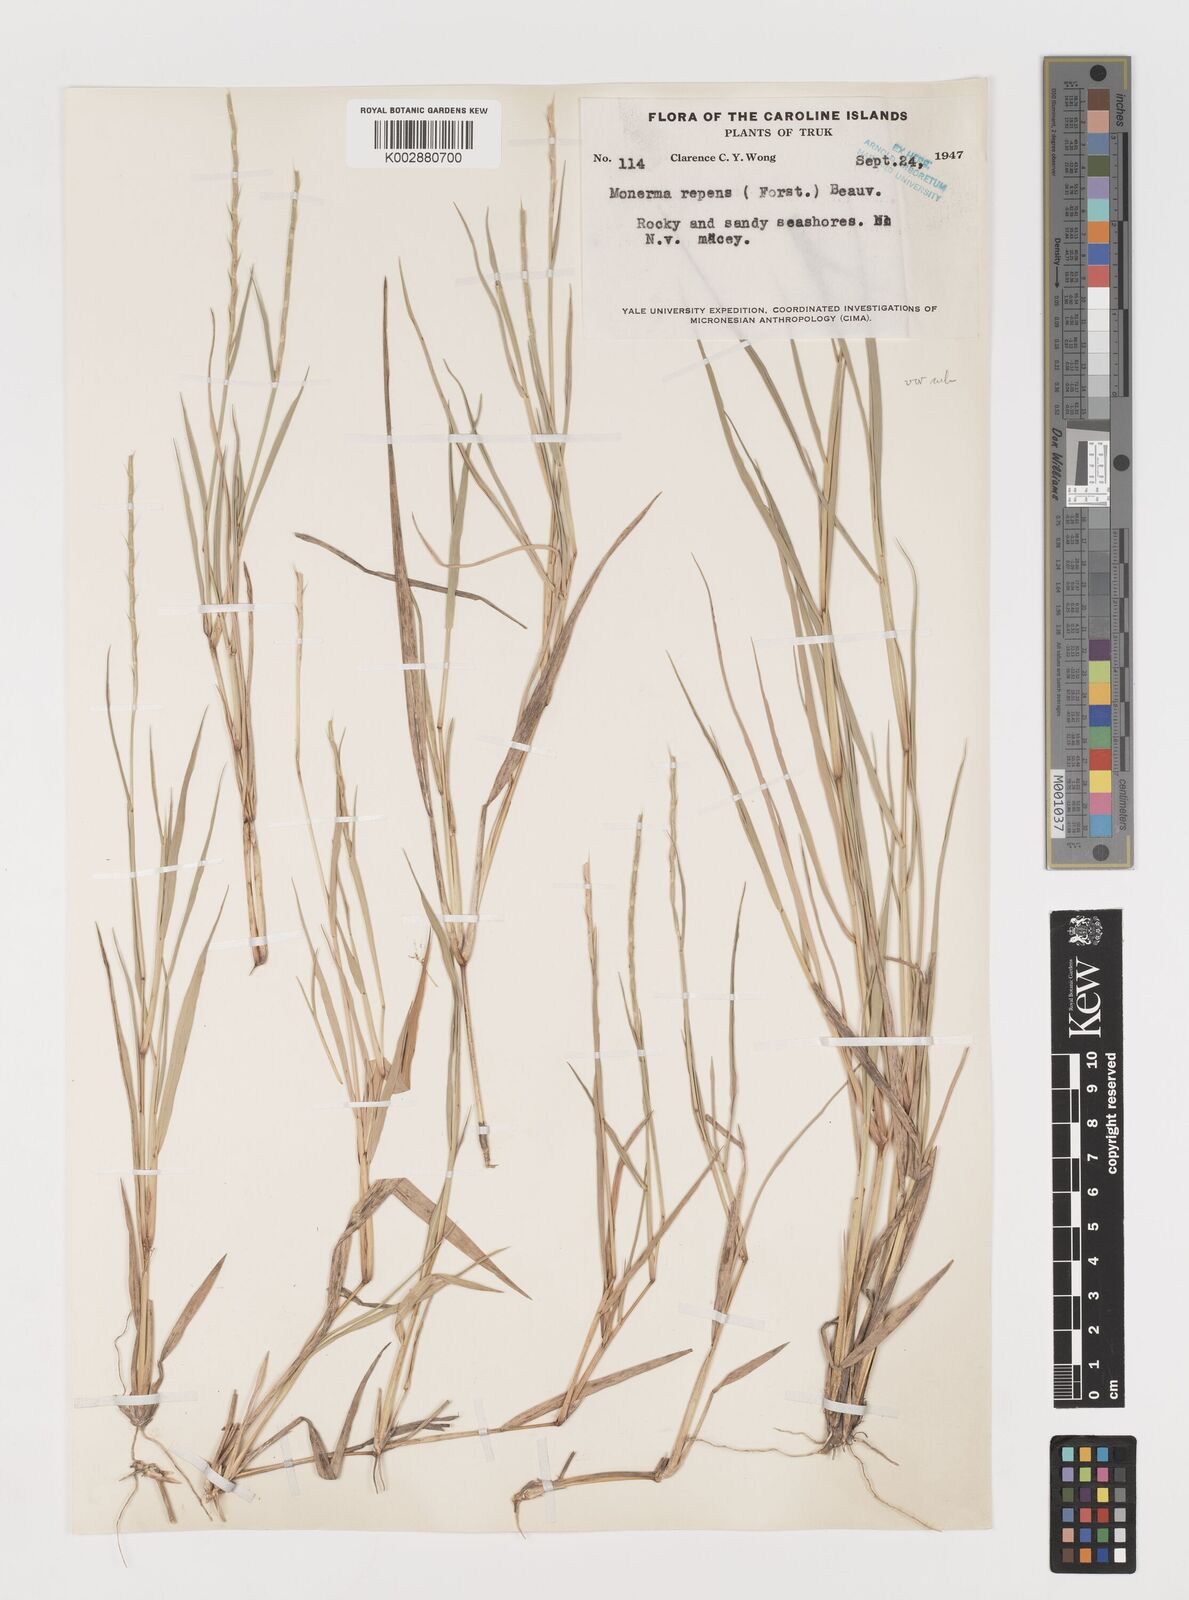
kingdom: Plantae
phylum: Tracheophyta
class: Liliopsida
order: Poales
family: Poaceae
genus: Lepturus
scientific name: Lepturus repens
